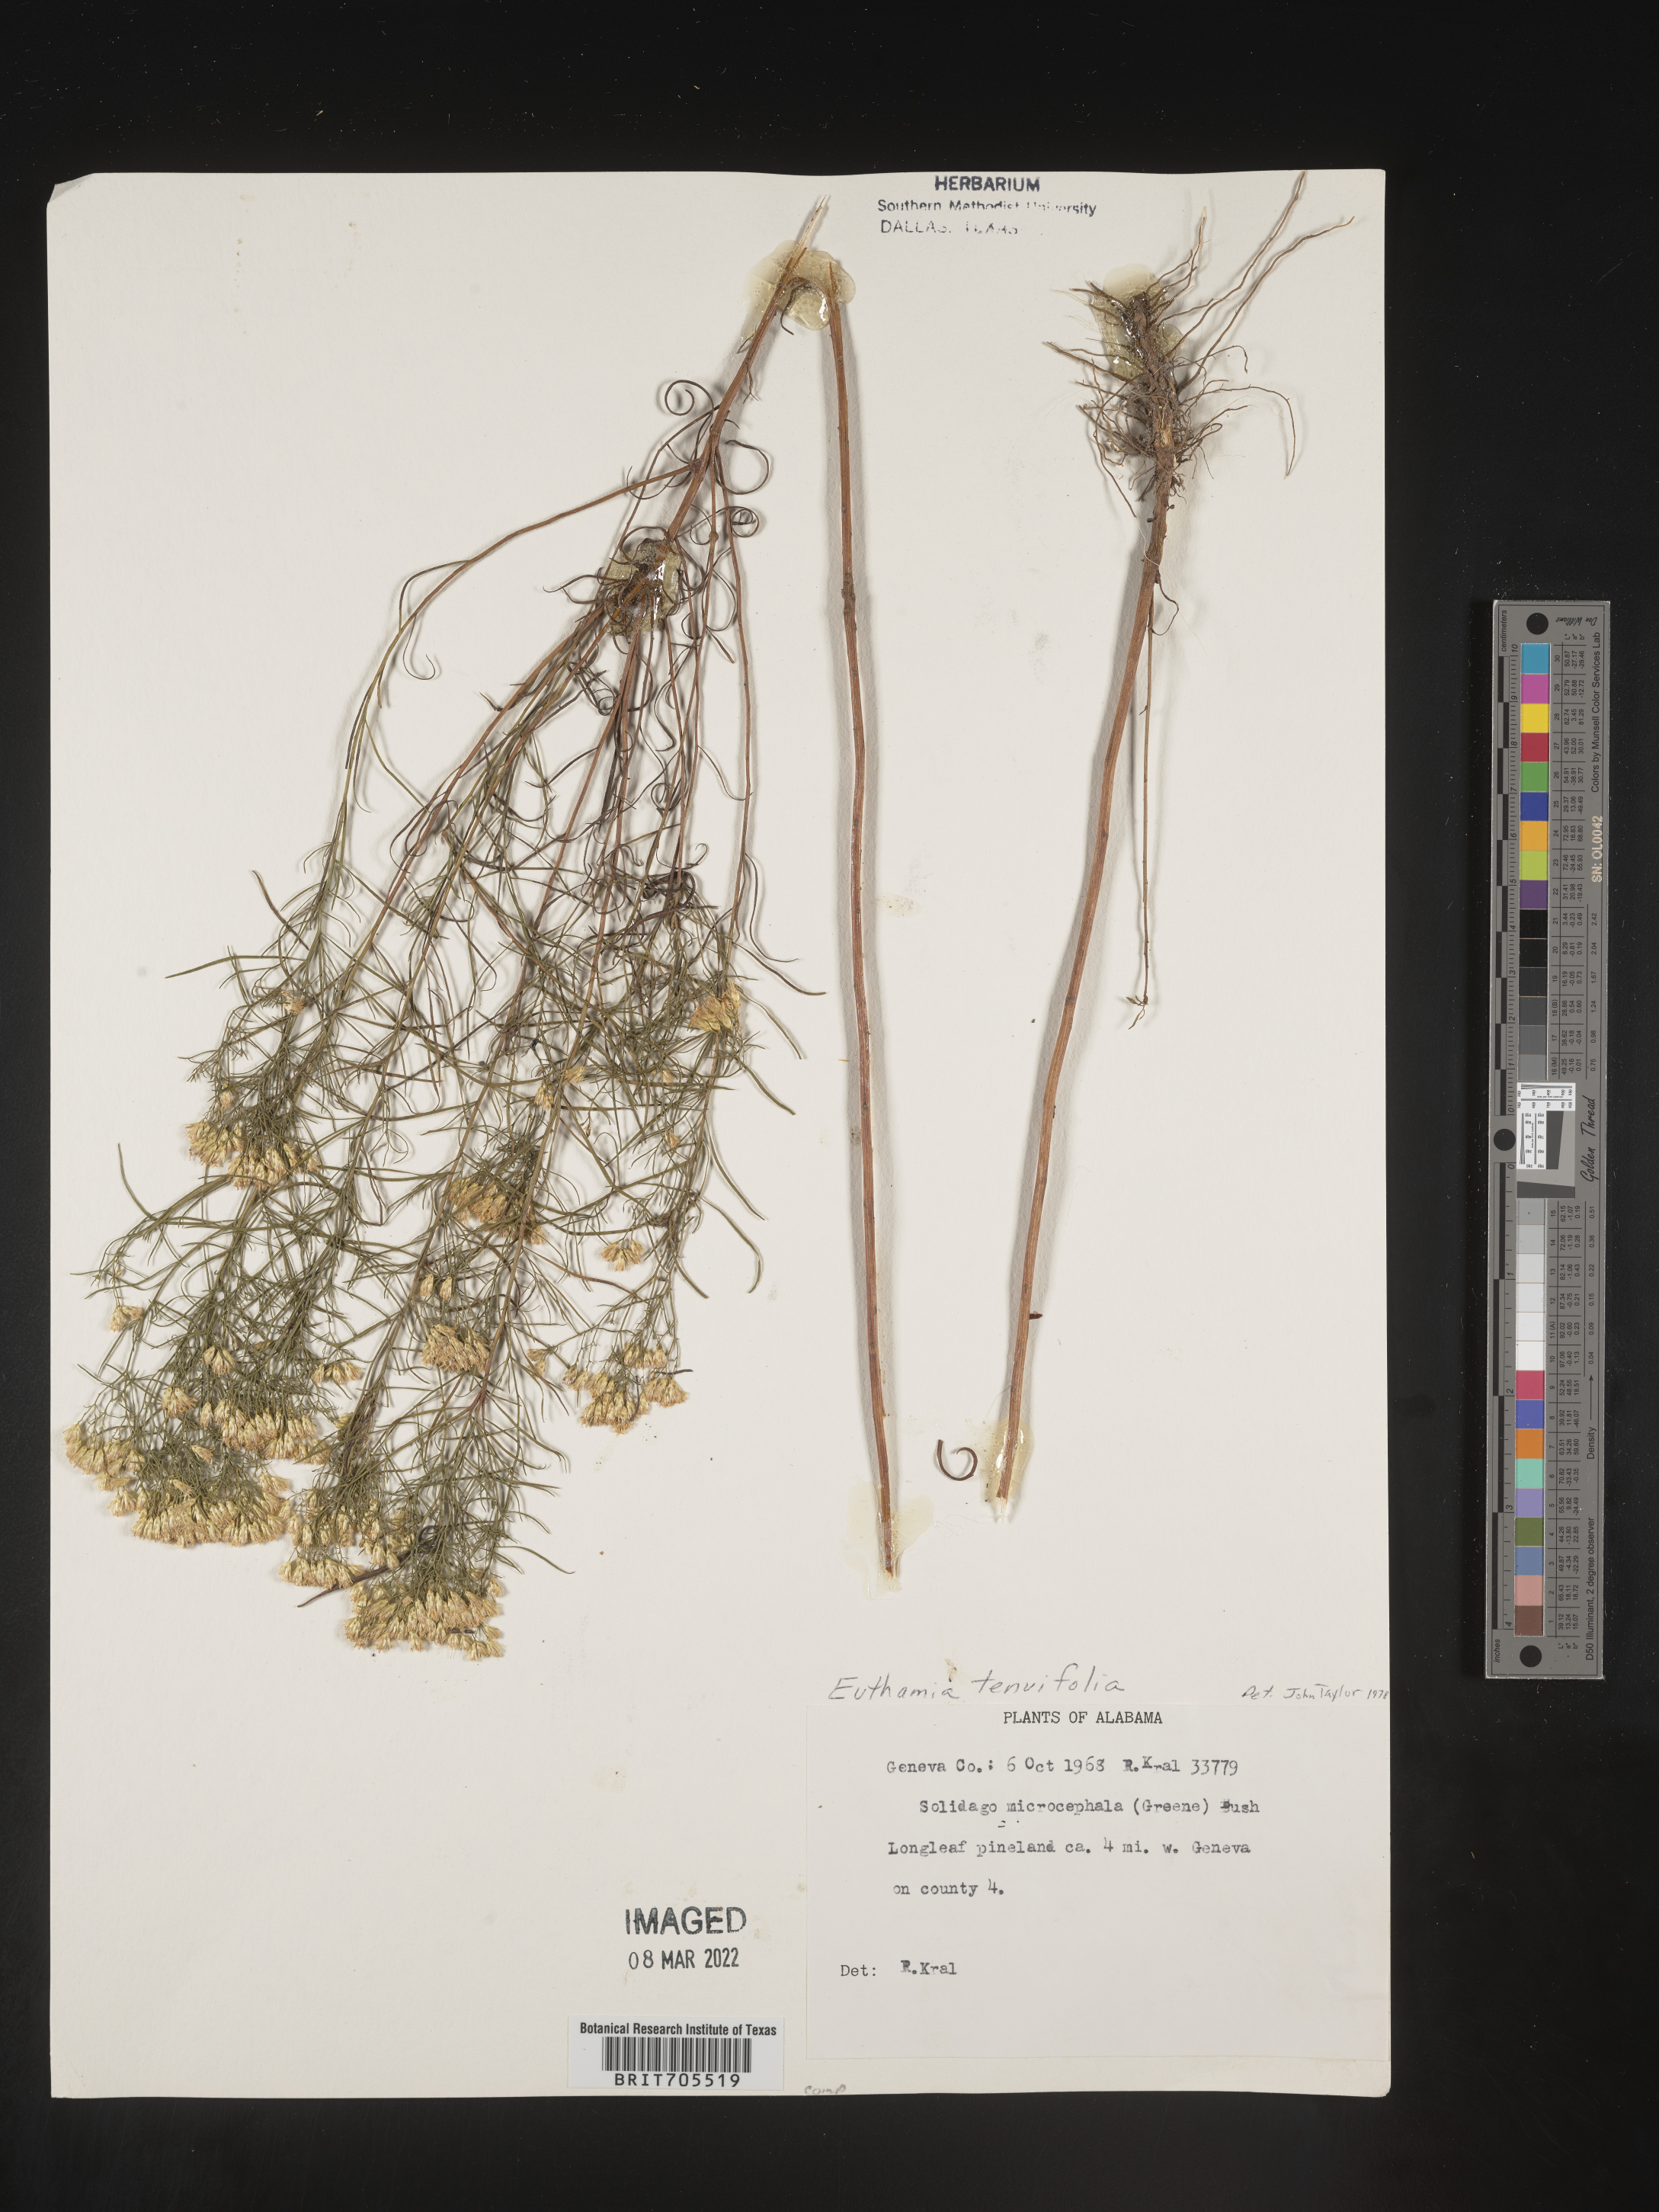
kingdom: Plantae
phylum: Tracheophyta
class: Magnoliopsida
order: Asterales
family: Asteraceae
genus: Euthamia
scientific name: Euthamia caroliniana
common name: Coastal plain goldentop
